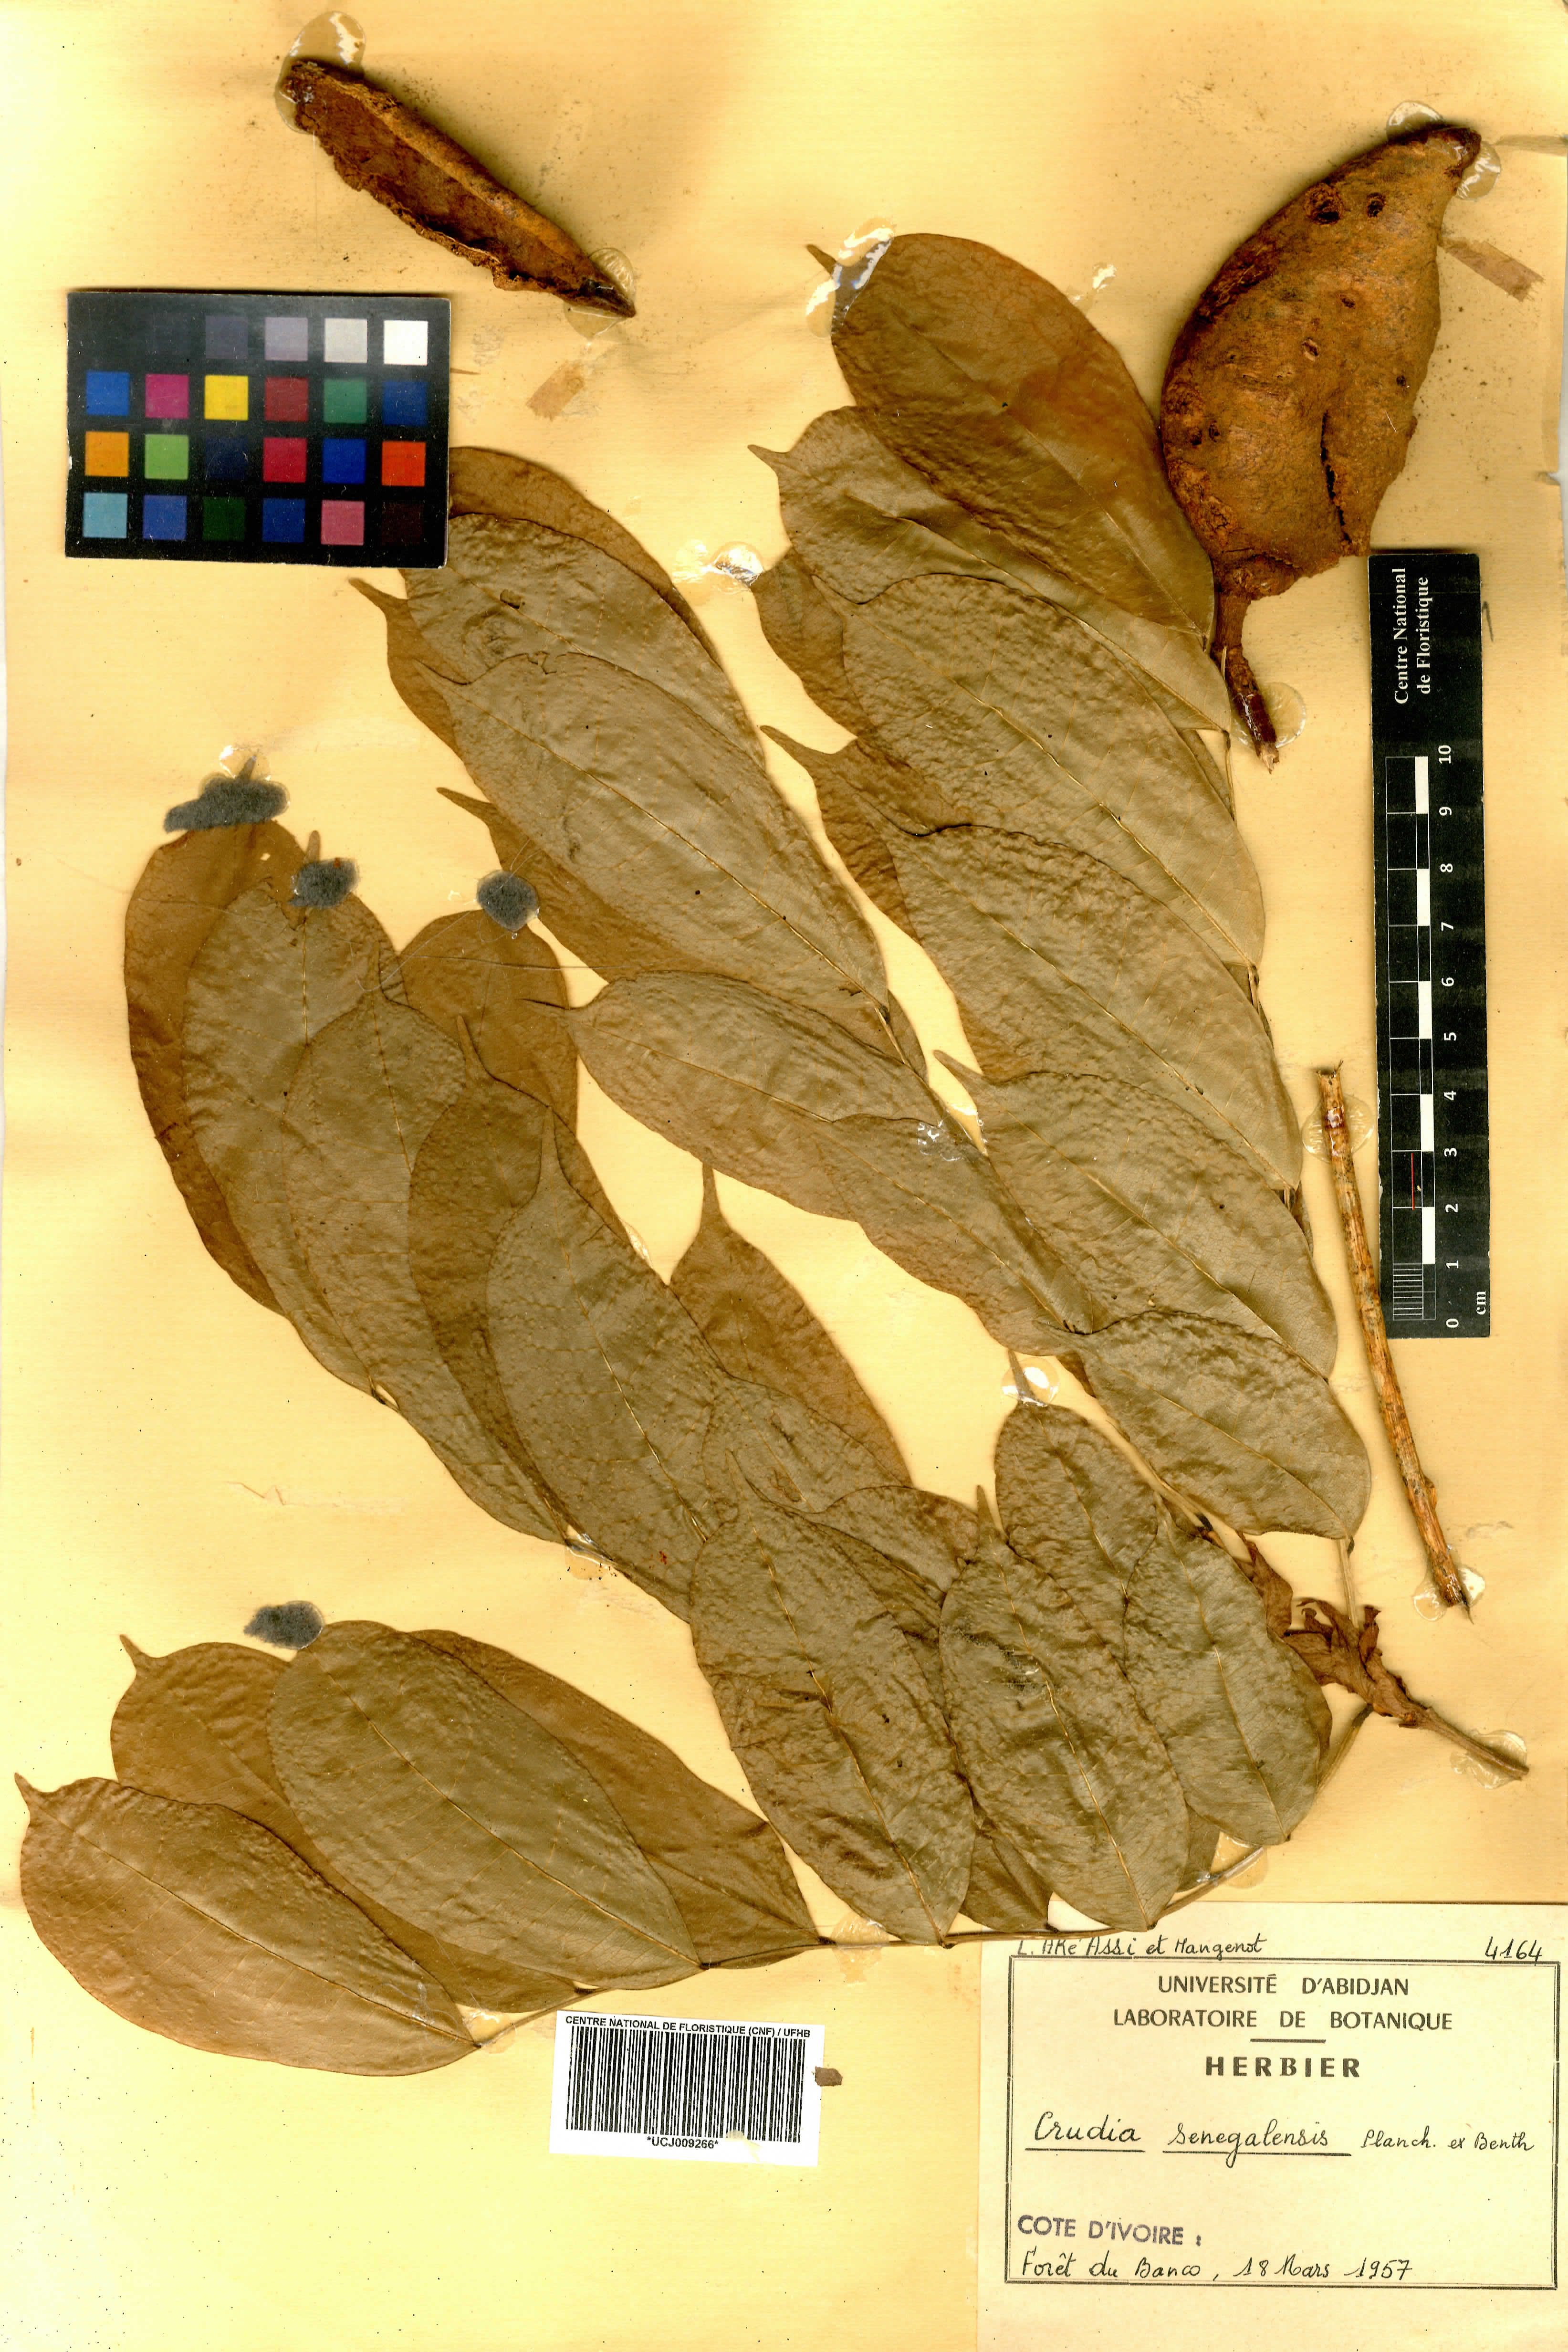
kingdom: Plantae
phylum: Tracheophyta
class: Magnoliopsida
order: Fabales
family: Fabaceae
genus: Crudia
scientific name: Crudia senegalensis
